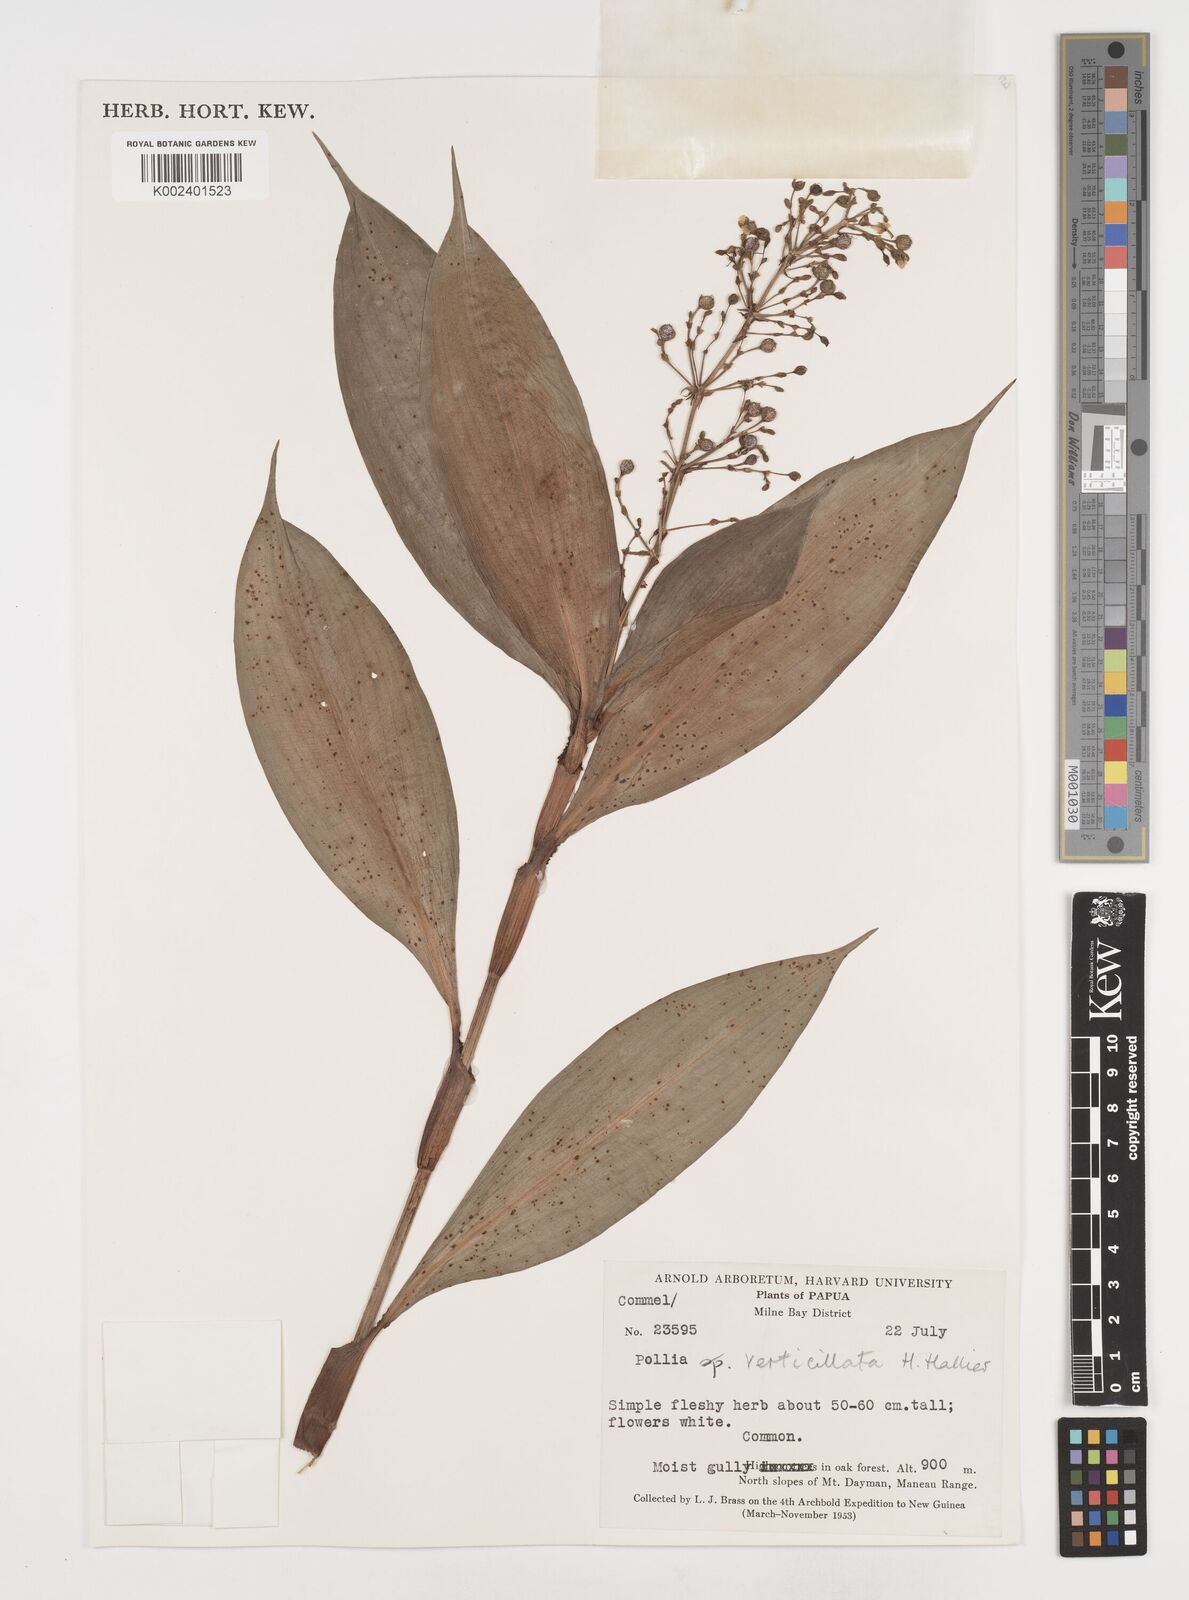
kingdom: Plantae
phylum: Tracheophyta
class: Liliopsida
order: Commelinales
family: Commelinaceae
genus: Pollia
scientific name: Pollia verticillata
